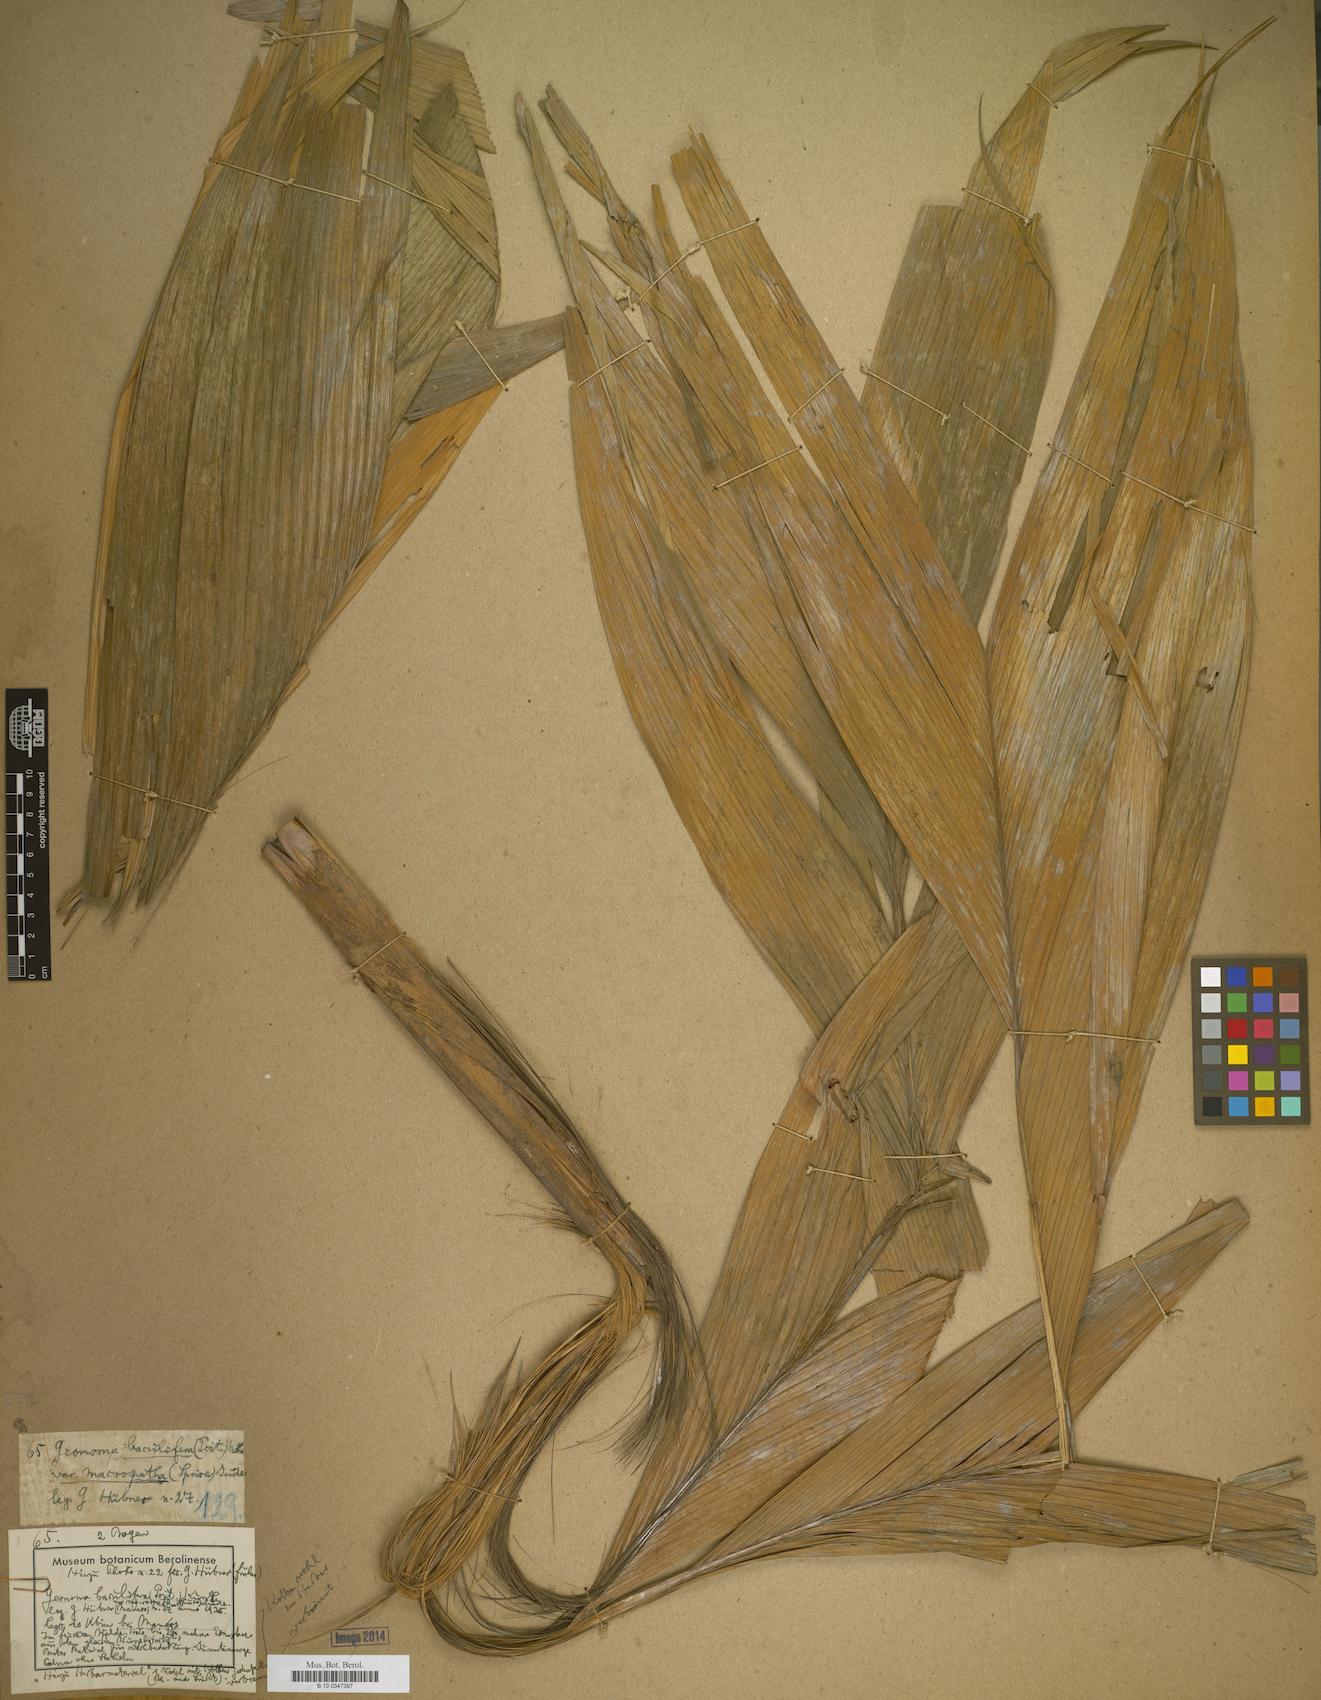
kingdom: Plantae
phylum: Tracheophyta
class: Liliopsida
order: Arecales
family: Arecaceae
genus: Geonoma
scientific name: Geonoma
